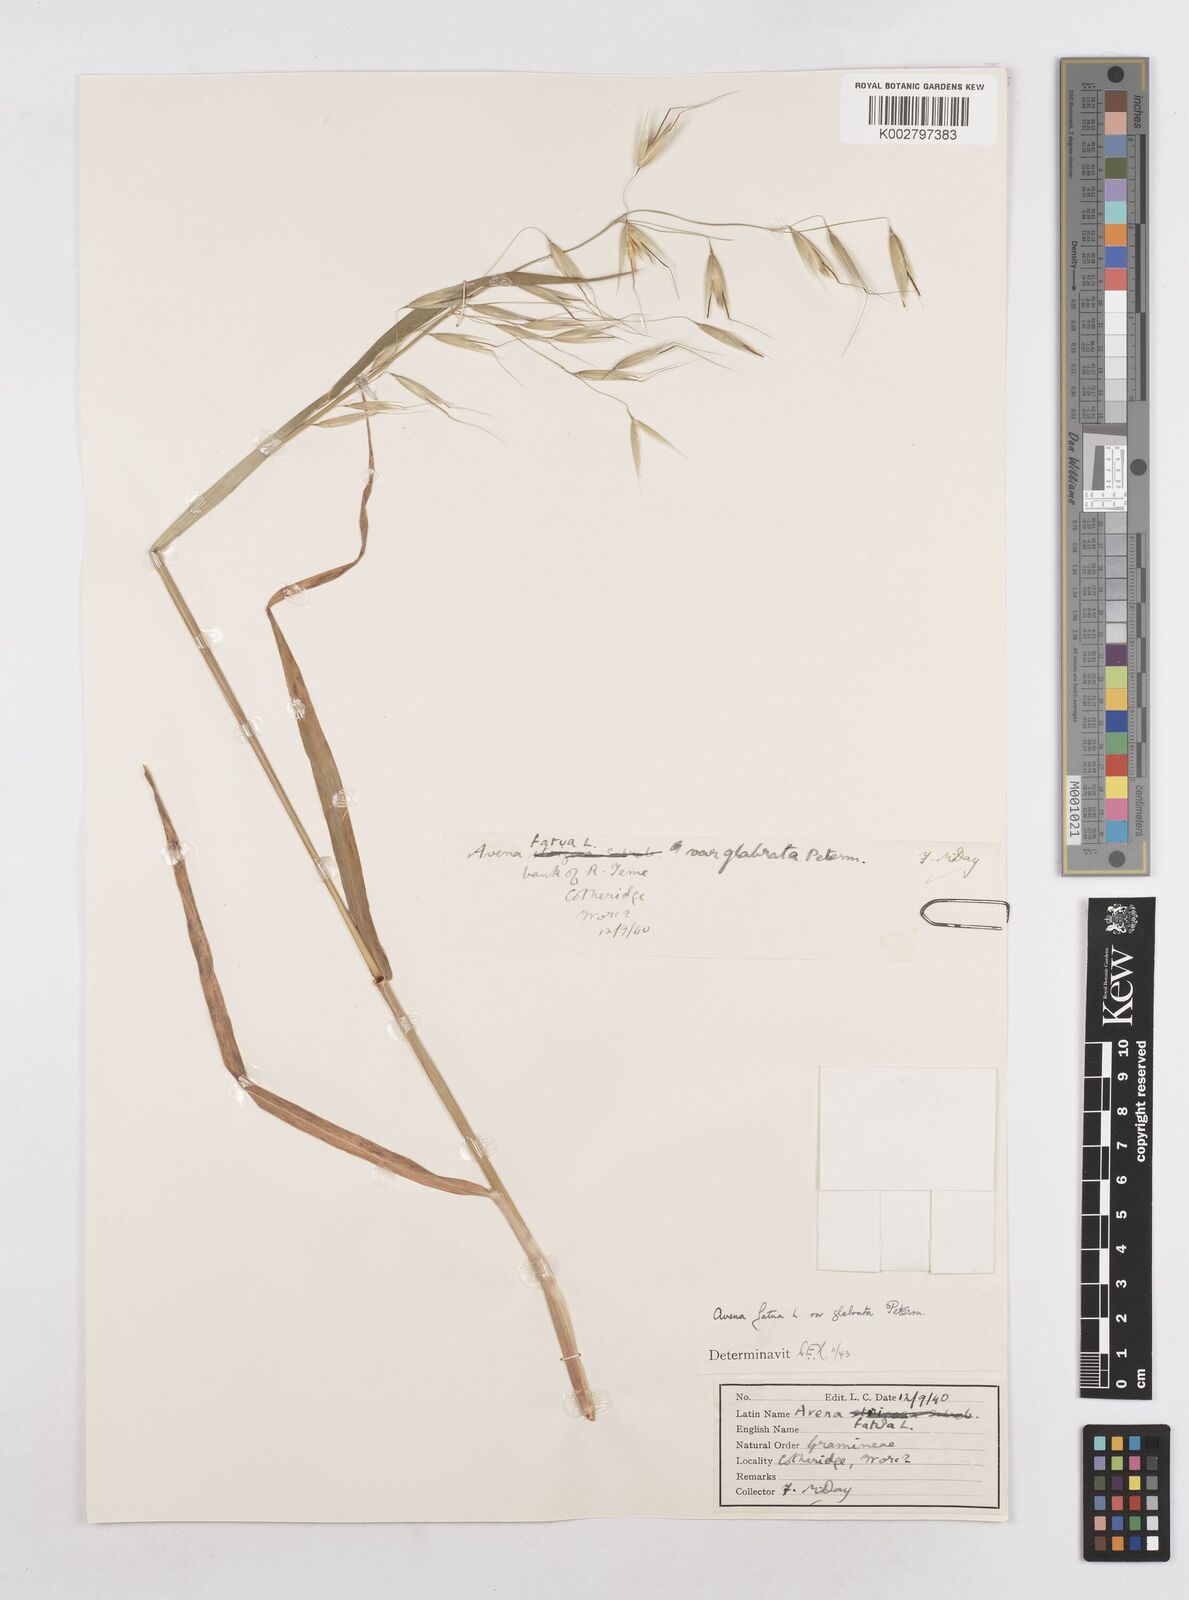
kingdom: Plantae
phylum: Tracheophyta
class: Liliopsida
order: Poales
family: Poaceae
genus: Avena
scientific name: Avena fatua
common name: Wild oat
